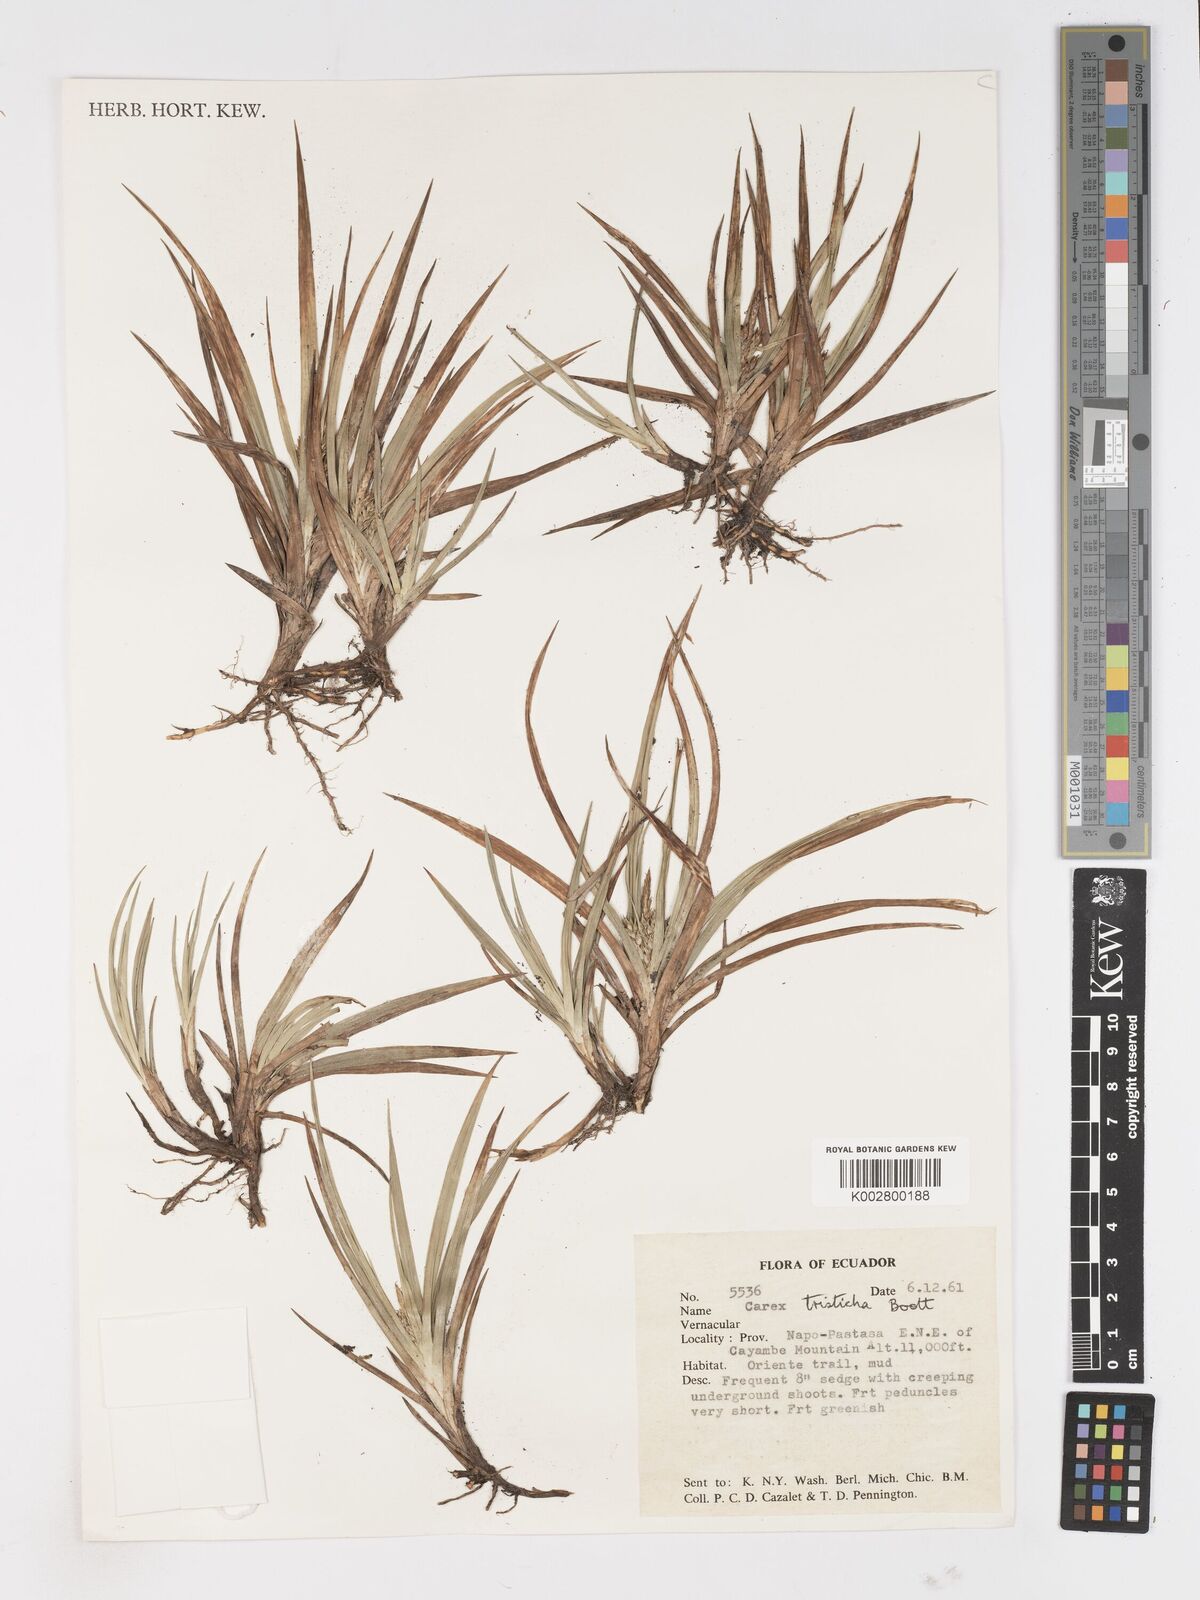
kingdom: Plantae
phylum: Tracheophyta
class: Liliopsida
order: Poales
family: Cyperaceae
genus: Carex
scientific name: Carex tamana
